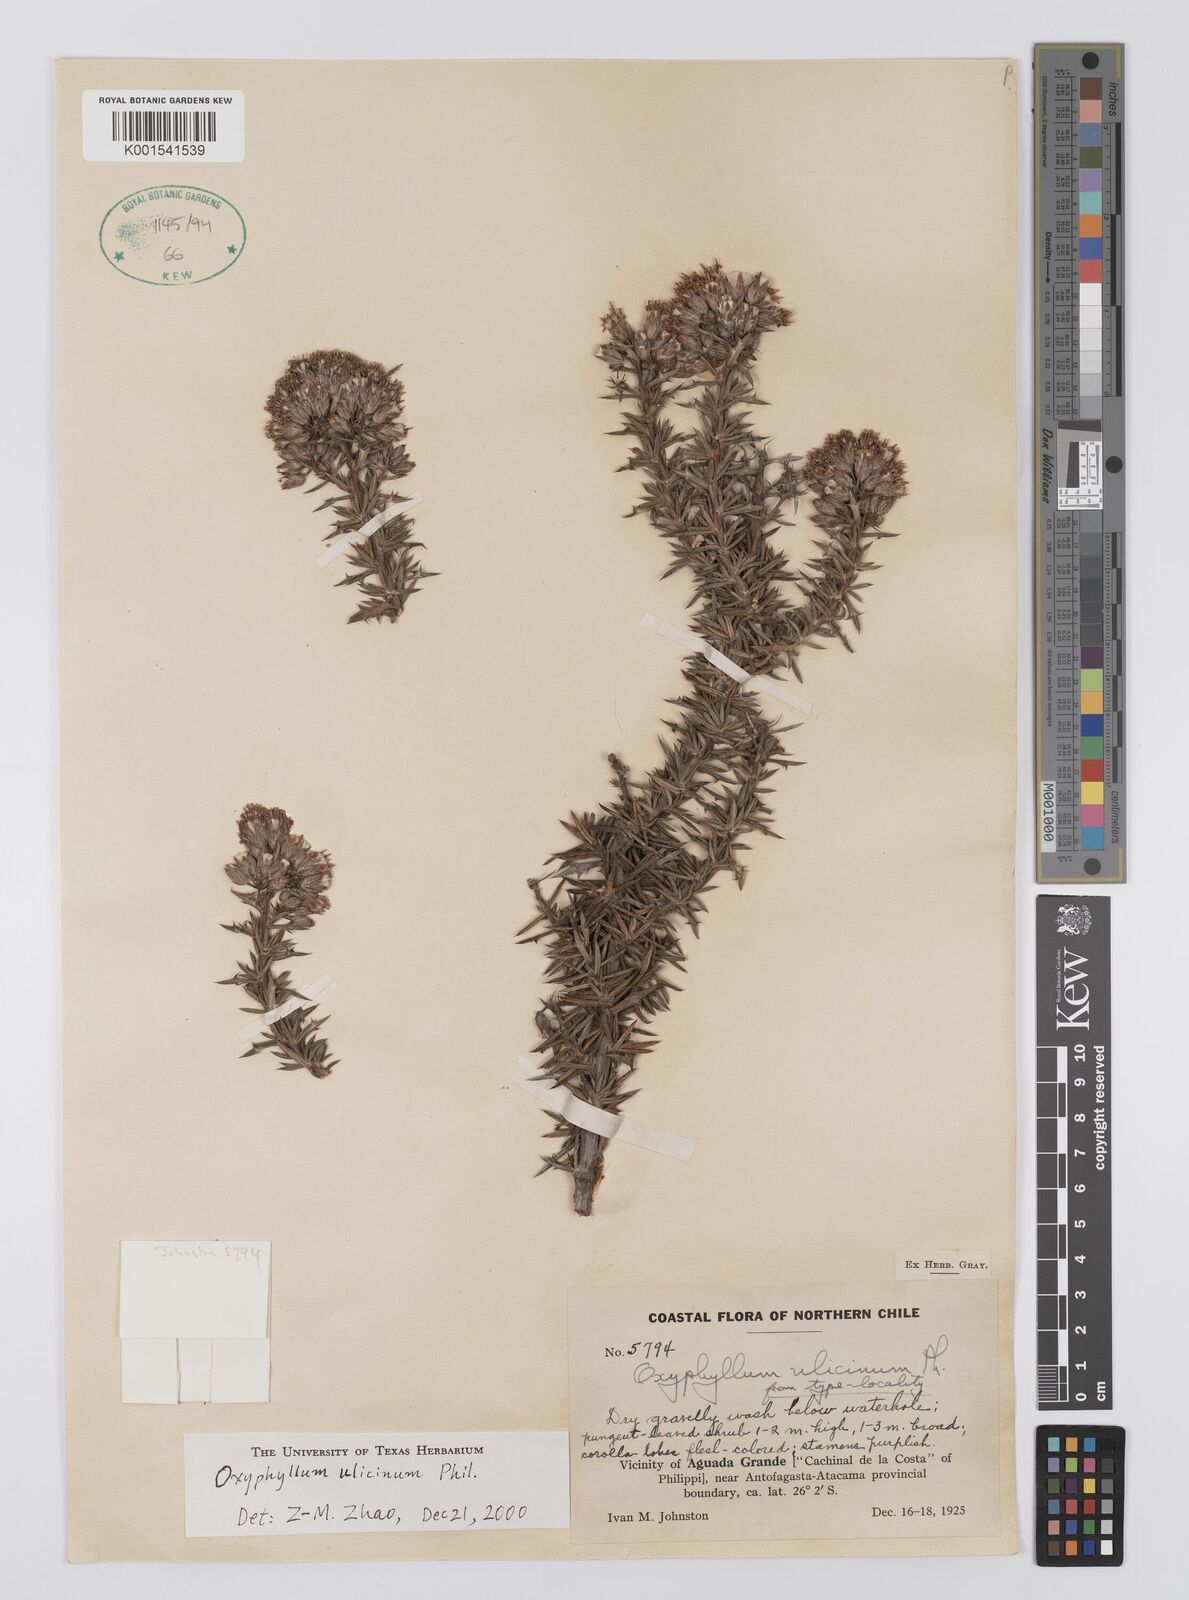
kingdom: Plantae
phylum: Tracheophyta
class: Magnoliopsida
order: Asterales
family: Asteraceae
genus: Oxyphyllum
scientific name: Oxyphyllum ulicinum
